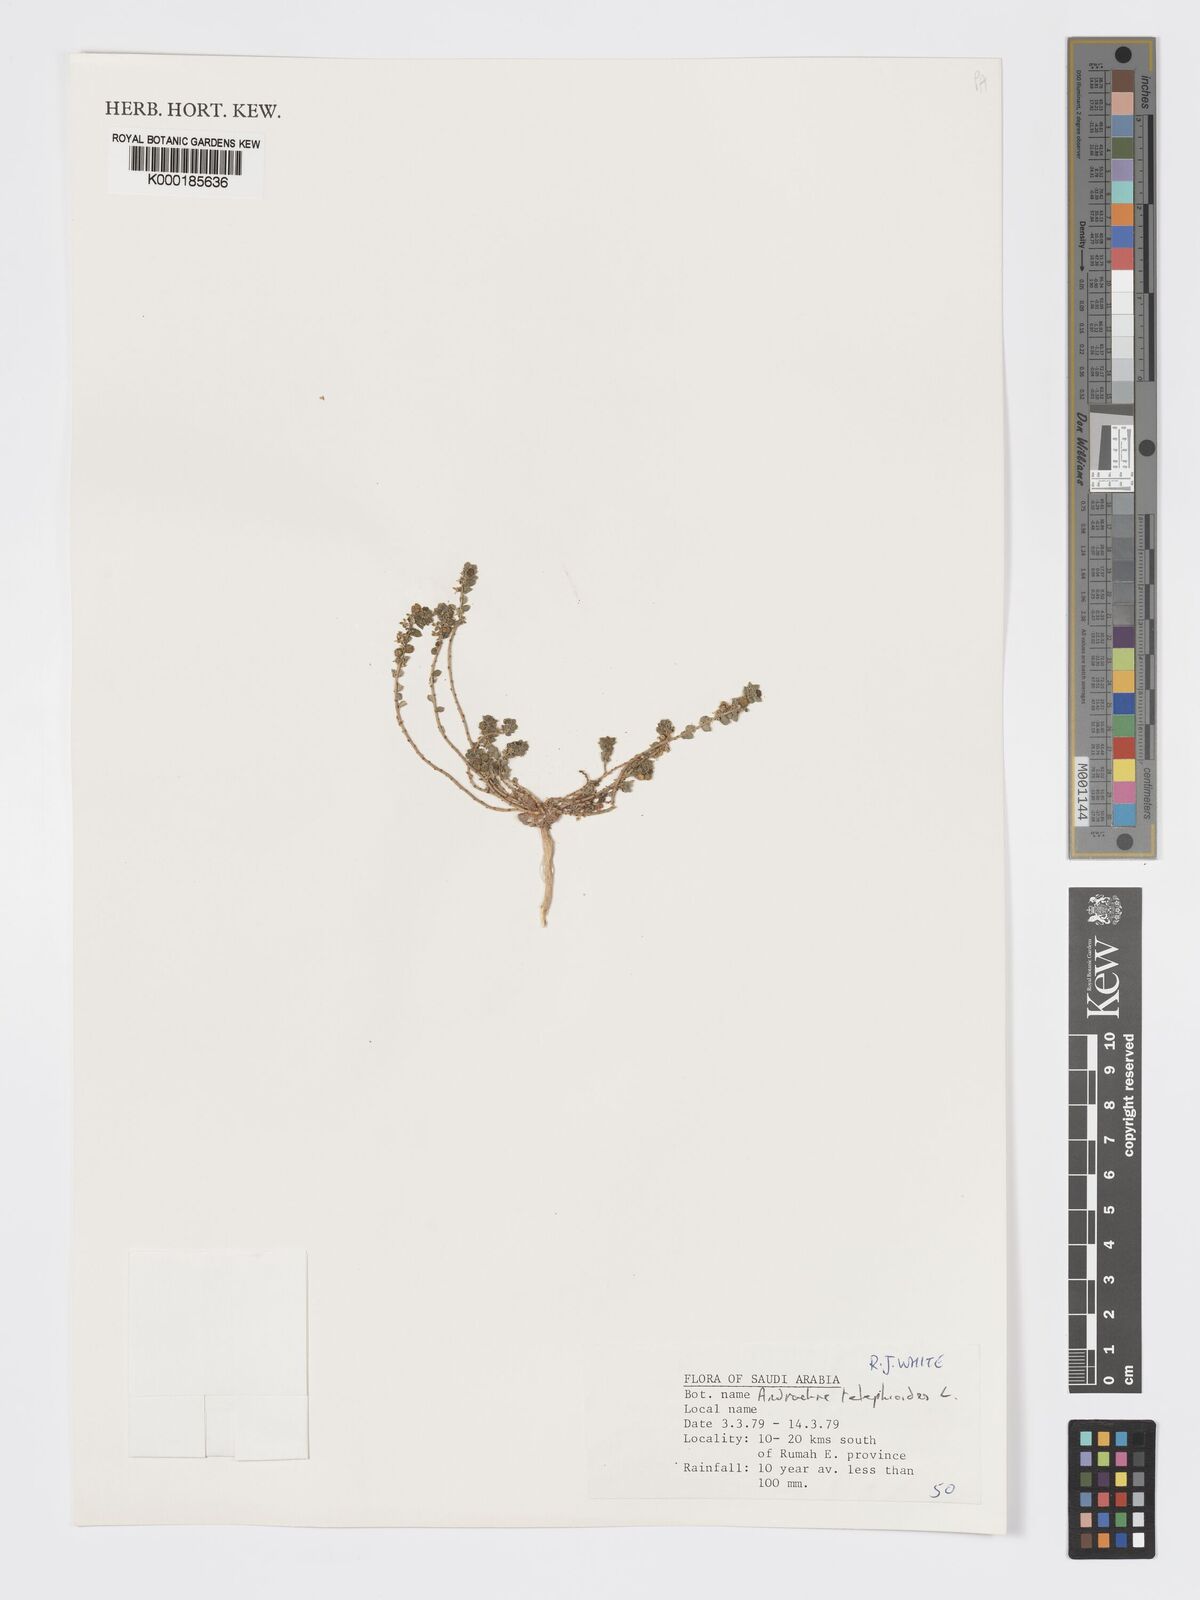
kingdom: Plantae
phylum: Tracheophyta
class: Magnoliopsida
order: Malpighiales
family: Phyllanthaceae
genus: Andrachne
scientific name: Andrachne telephioides
